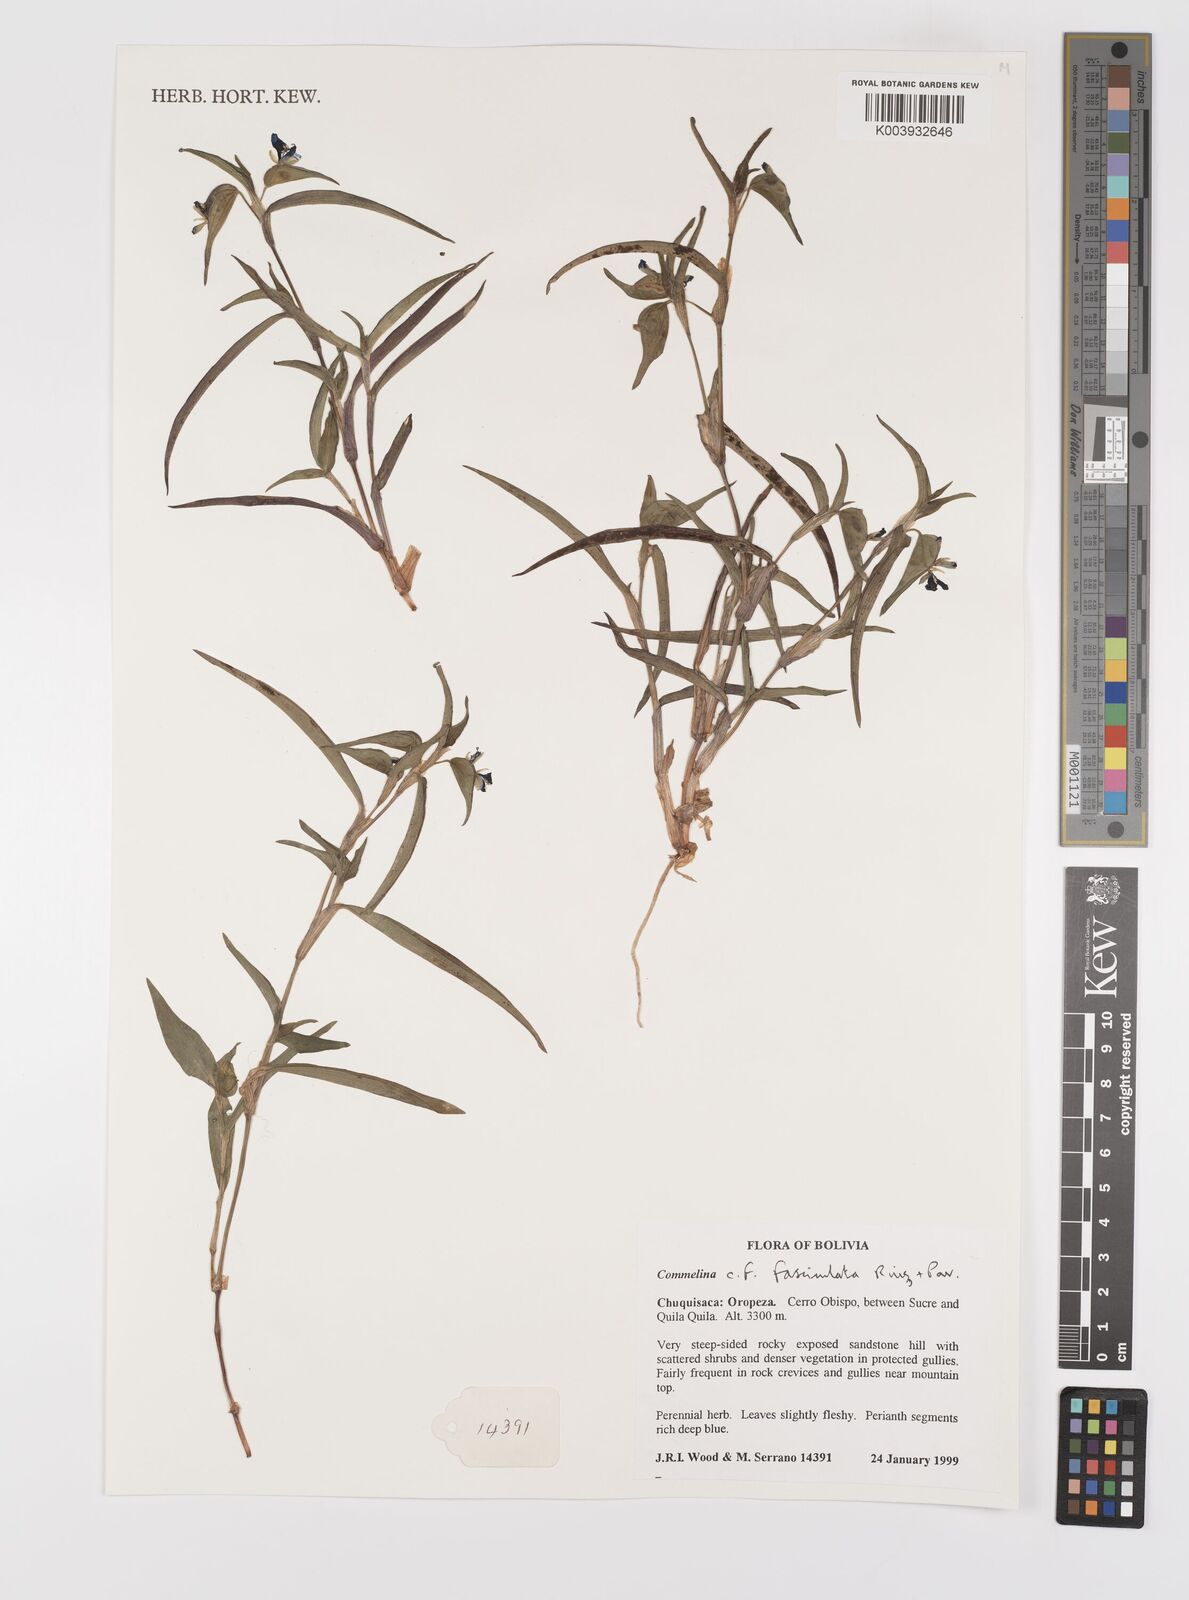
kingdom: Plantae
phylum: Tracheophyta
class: Liliopsida
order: Commelinales
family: Commelinaceae
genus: Commelina
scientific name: Commelina tuberosa
